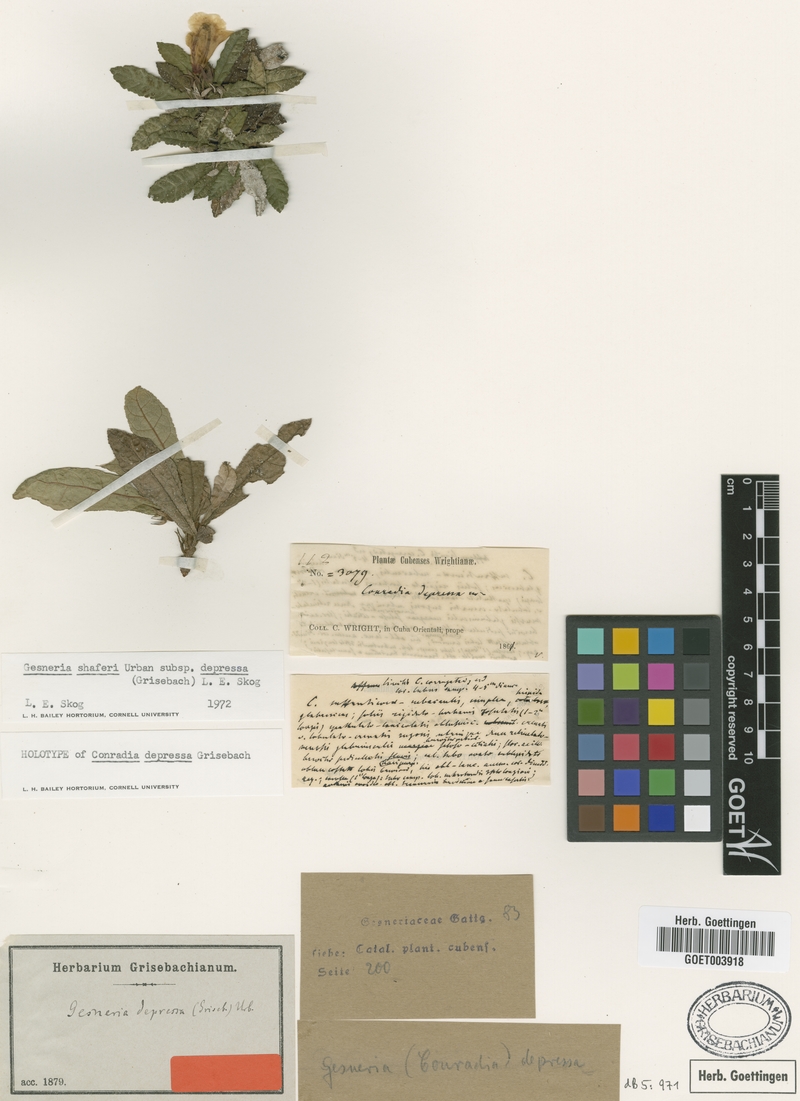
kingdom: Plantae
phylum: Tracheophyta
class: Magnoliopsida
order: Lamiales
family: Gesneriaceae
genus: Gesneria
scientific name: Gesneria depressa
